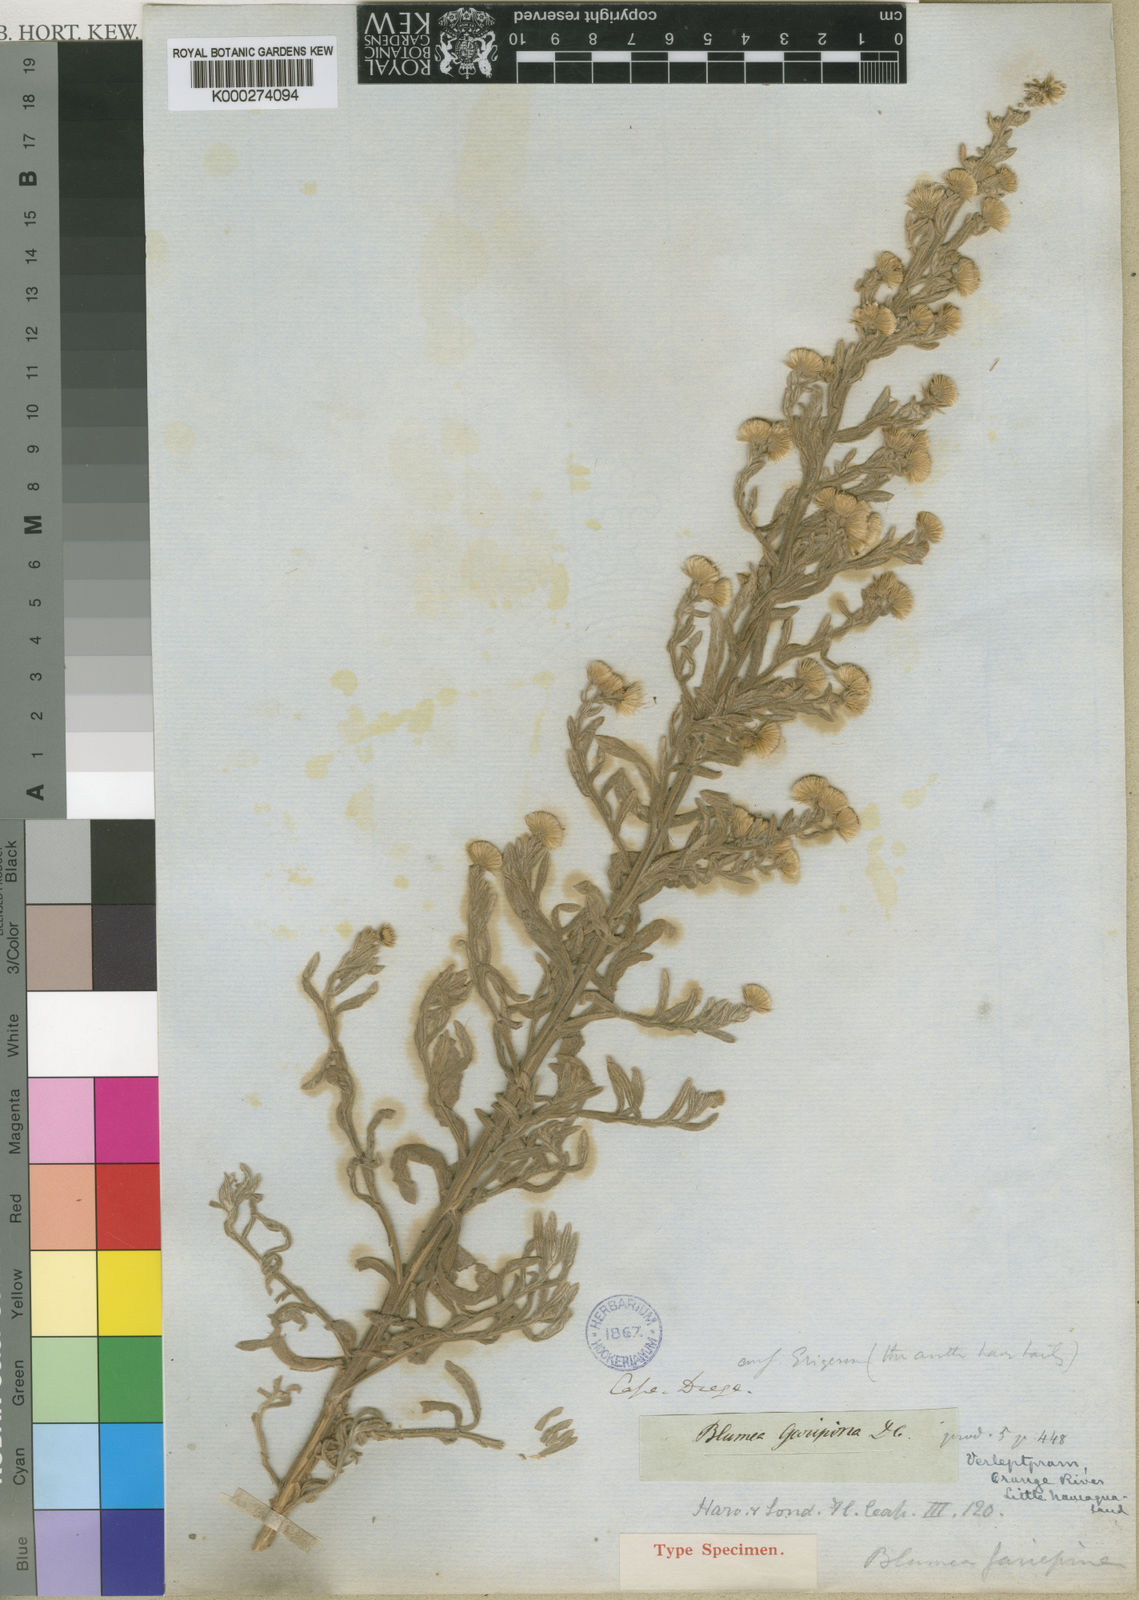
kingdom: Plantae
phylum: Tracheophyta
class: Magnoliopsida
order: Asterales
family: Asteraceae
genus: Galgera
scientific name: Galgera decurrens
